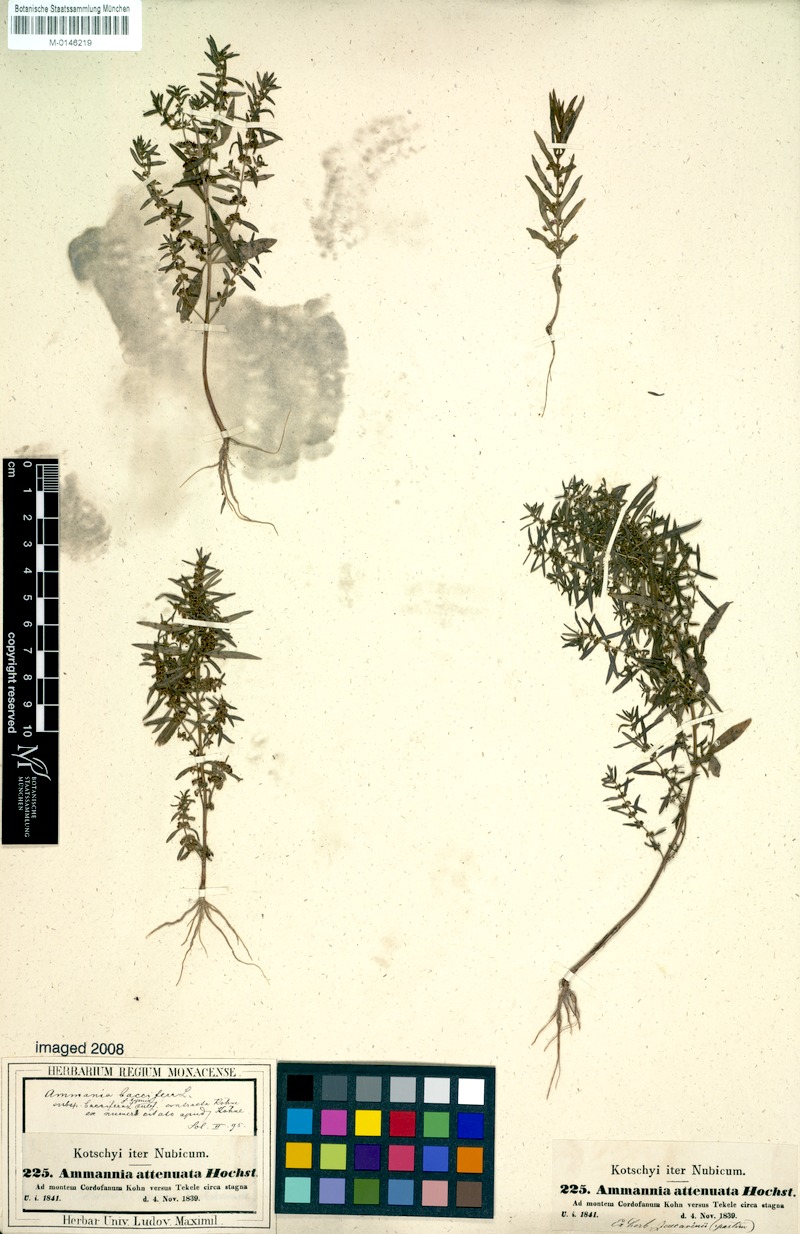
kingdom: Plantae
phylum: Tracheophyta
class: Magnoliopsida
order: Myrtales
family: Lythraceae
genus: Ammannia
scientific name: Ammannia baccifera
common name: Blistering ammania
